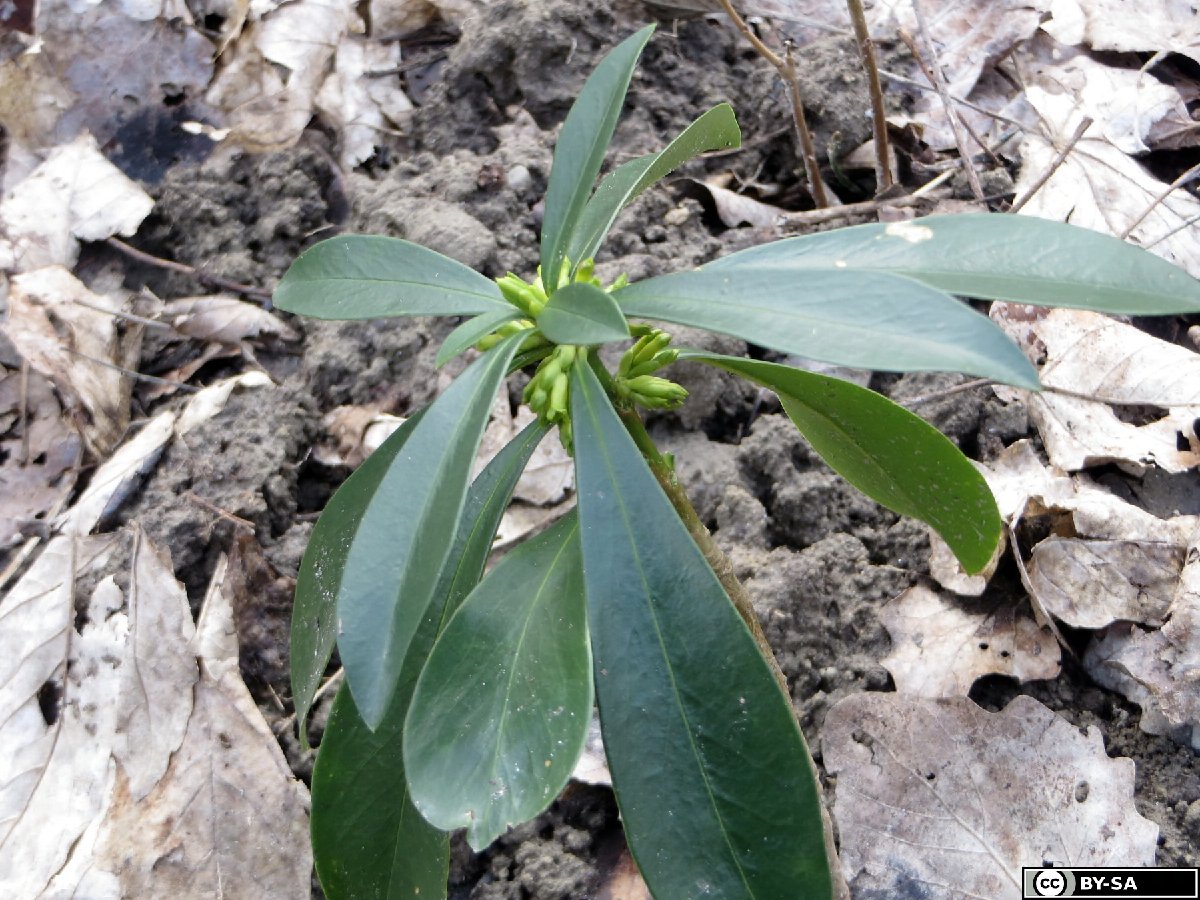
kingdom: Plantae
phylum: Tracheophyta
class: Magnoliopsida
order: Malvales
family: Thymelaeaceae
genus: Daphne
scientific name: Daphne laureola
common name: Spurge-laurel
